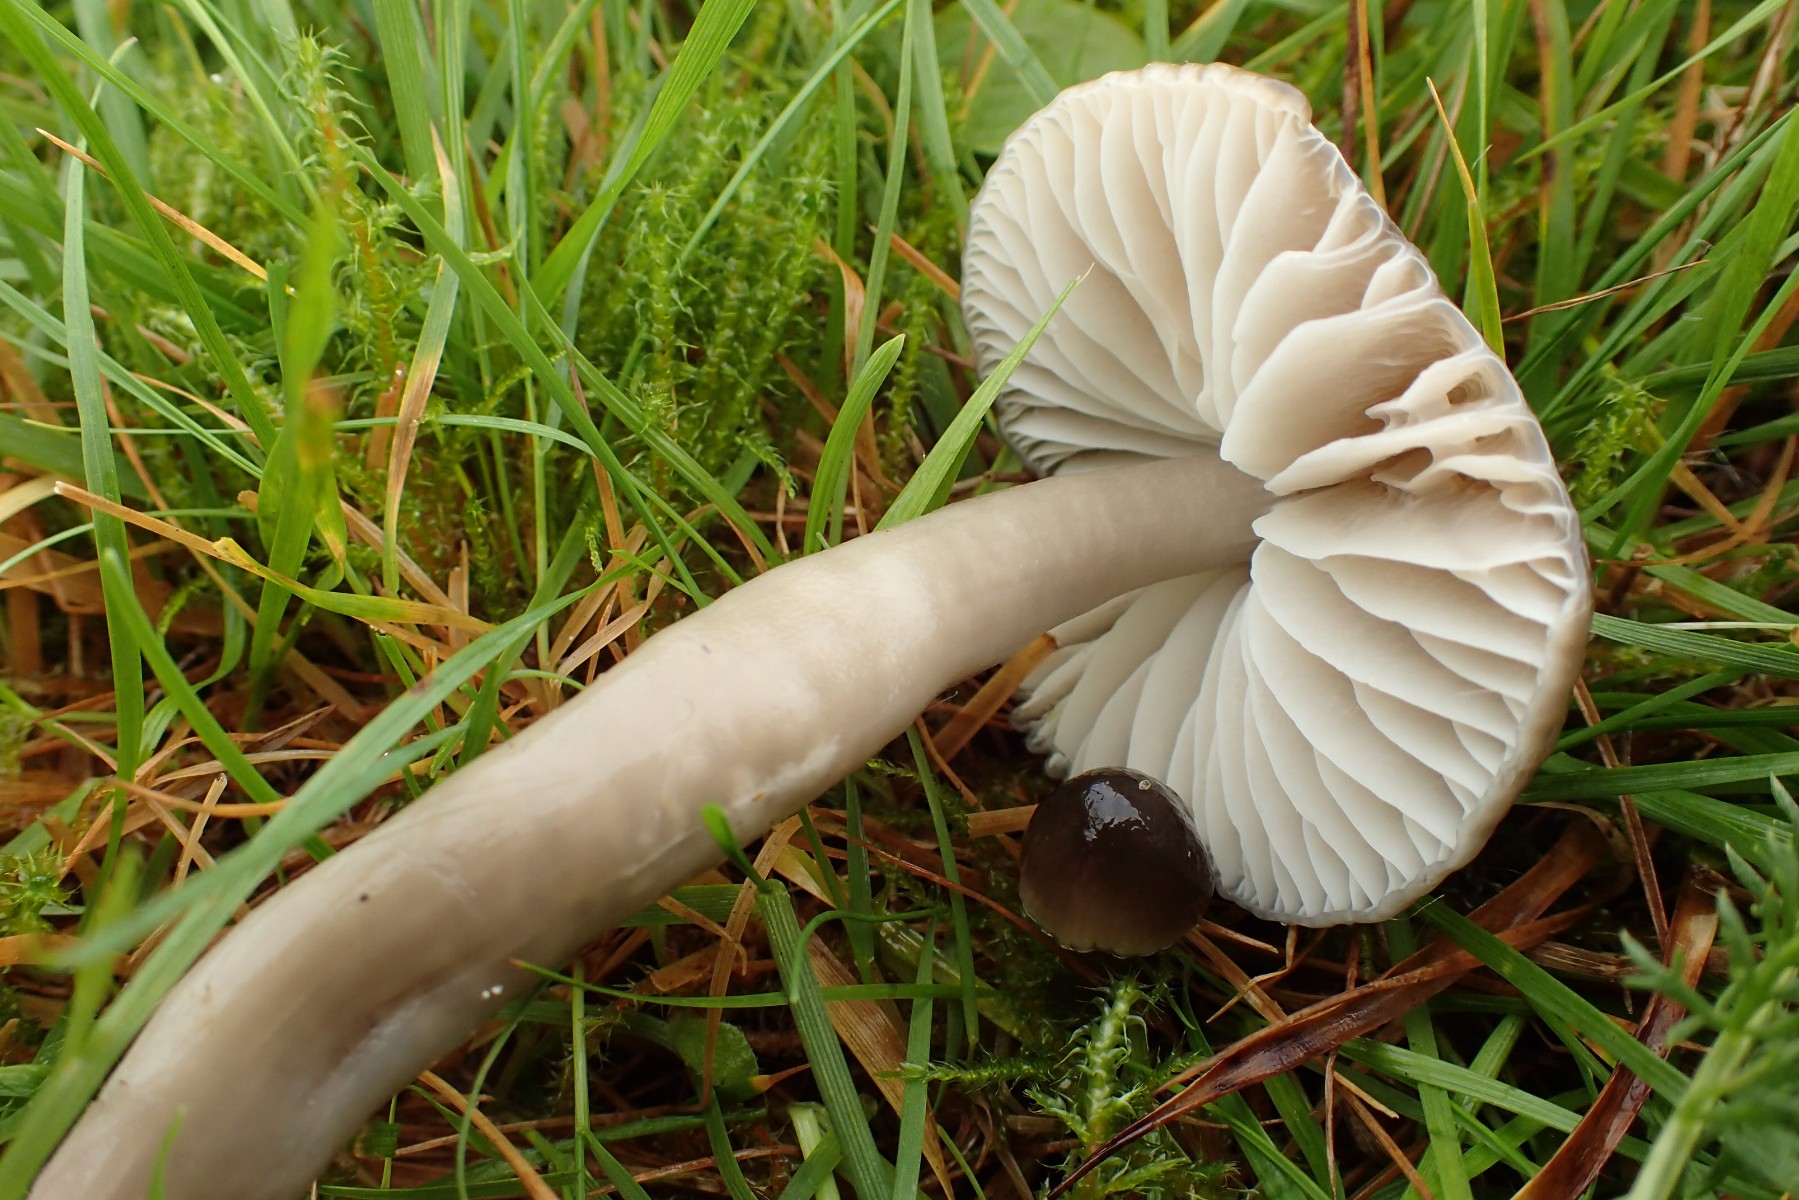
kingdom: Fungi
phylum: Basidiomycota
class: Agaricomycetes
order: Agaricales
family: Hygrophoraceae
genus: Gliophorus
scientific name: Gliophorus irrigatus
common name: slimet vokshat
